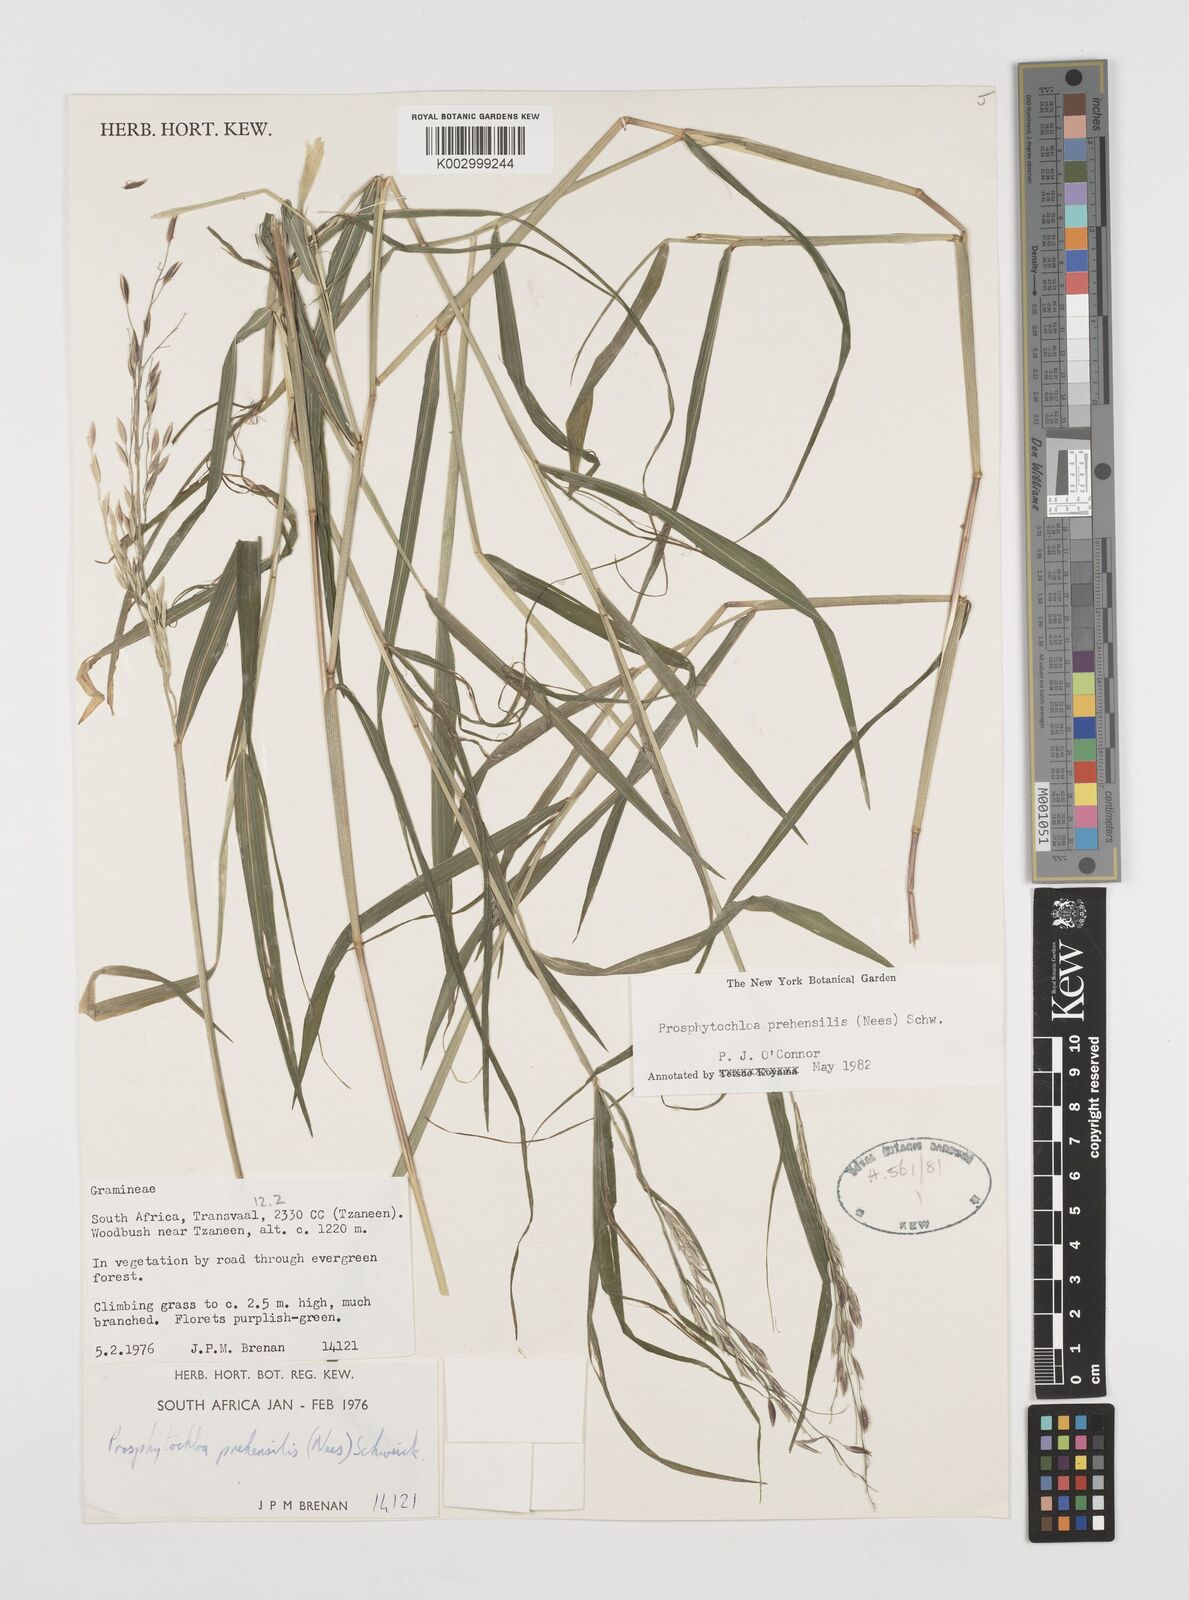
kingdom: Plantae
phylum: Tracheophyta
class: Liliopsida
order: Poales
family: Poaceae
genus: Prosphytochloa
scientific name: Prosphytochloa prehensilis
